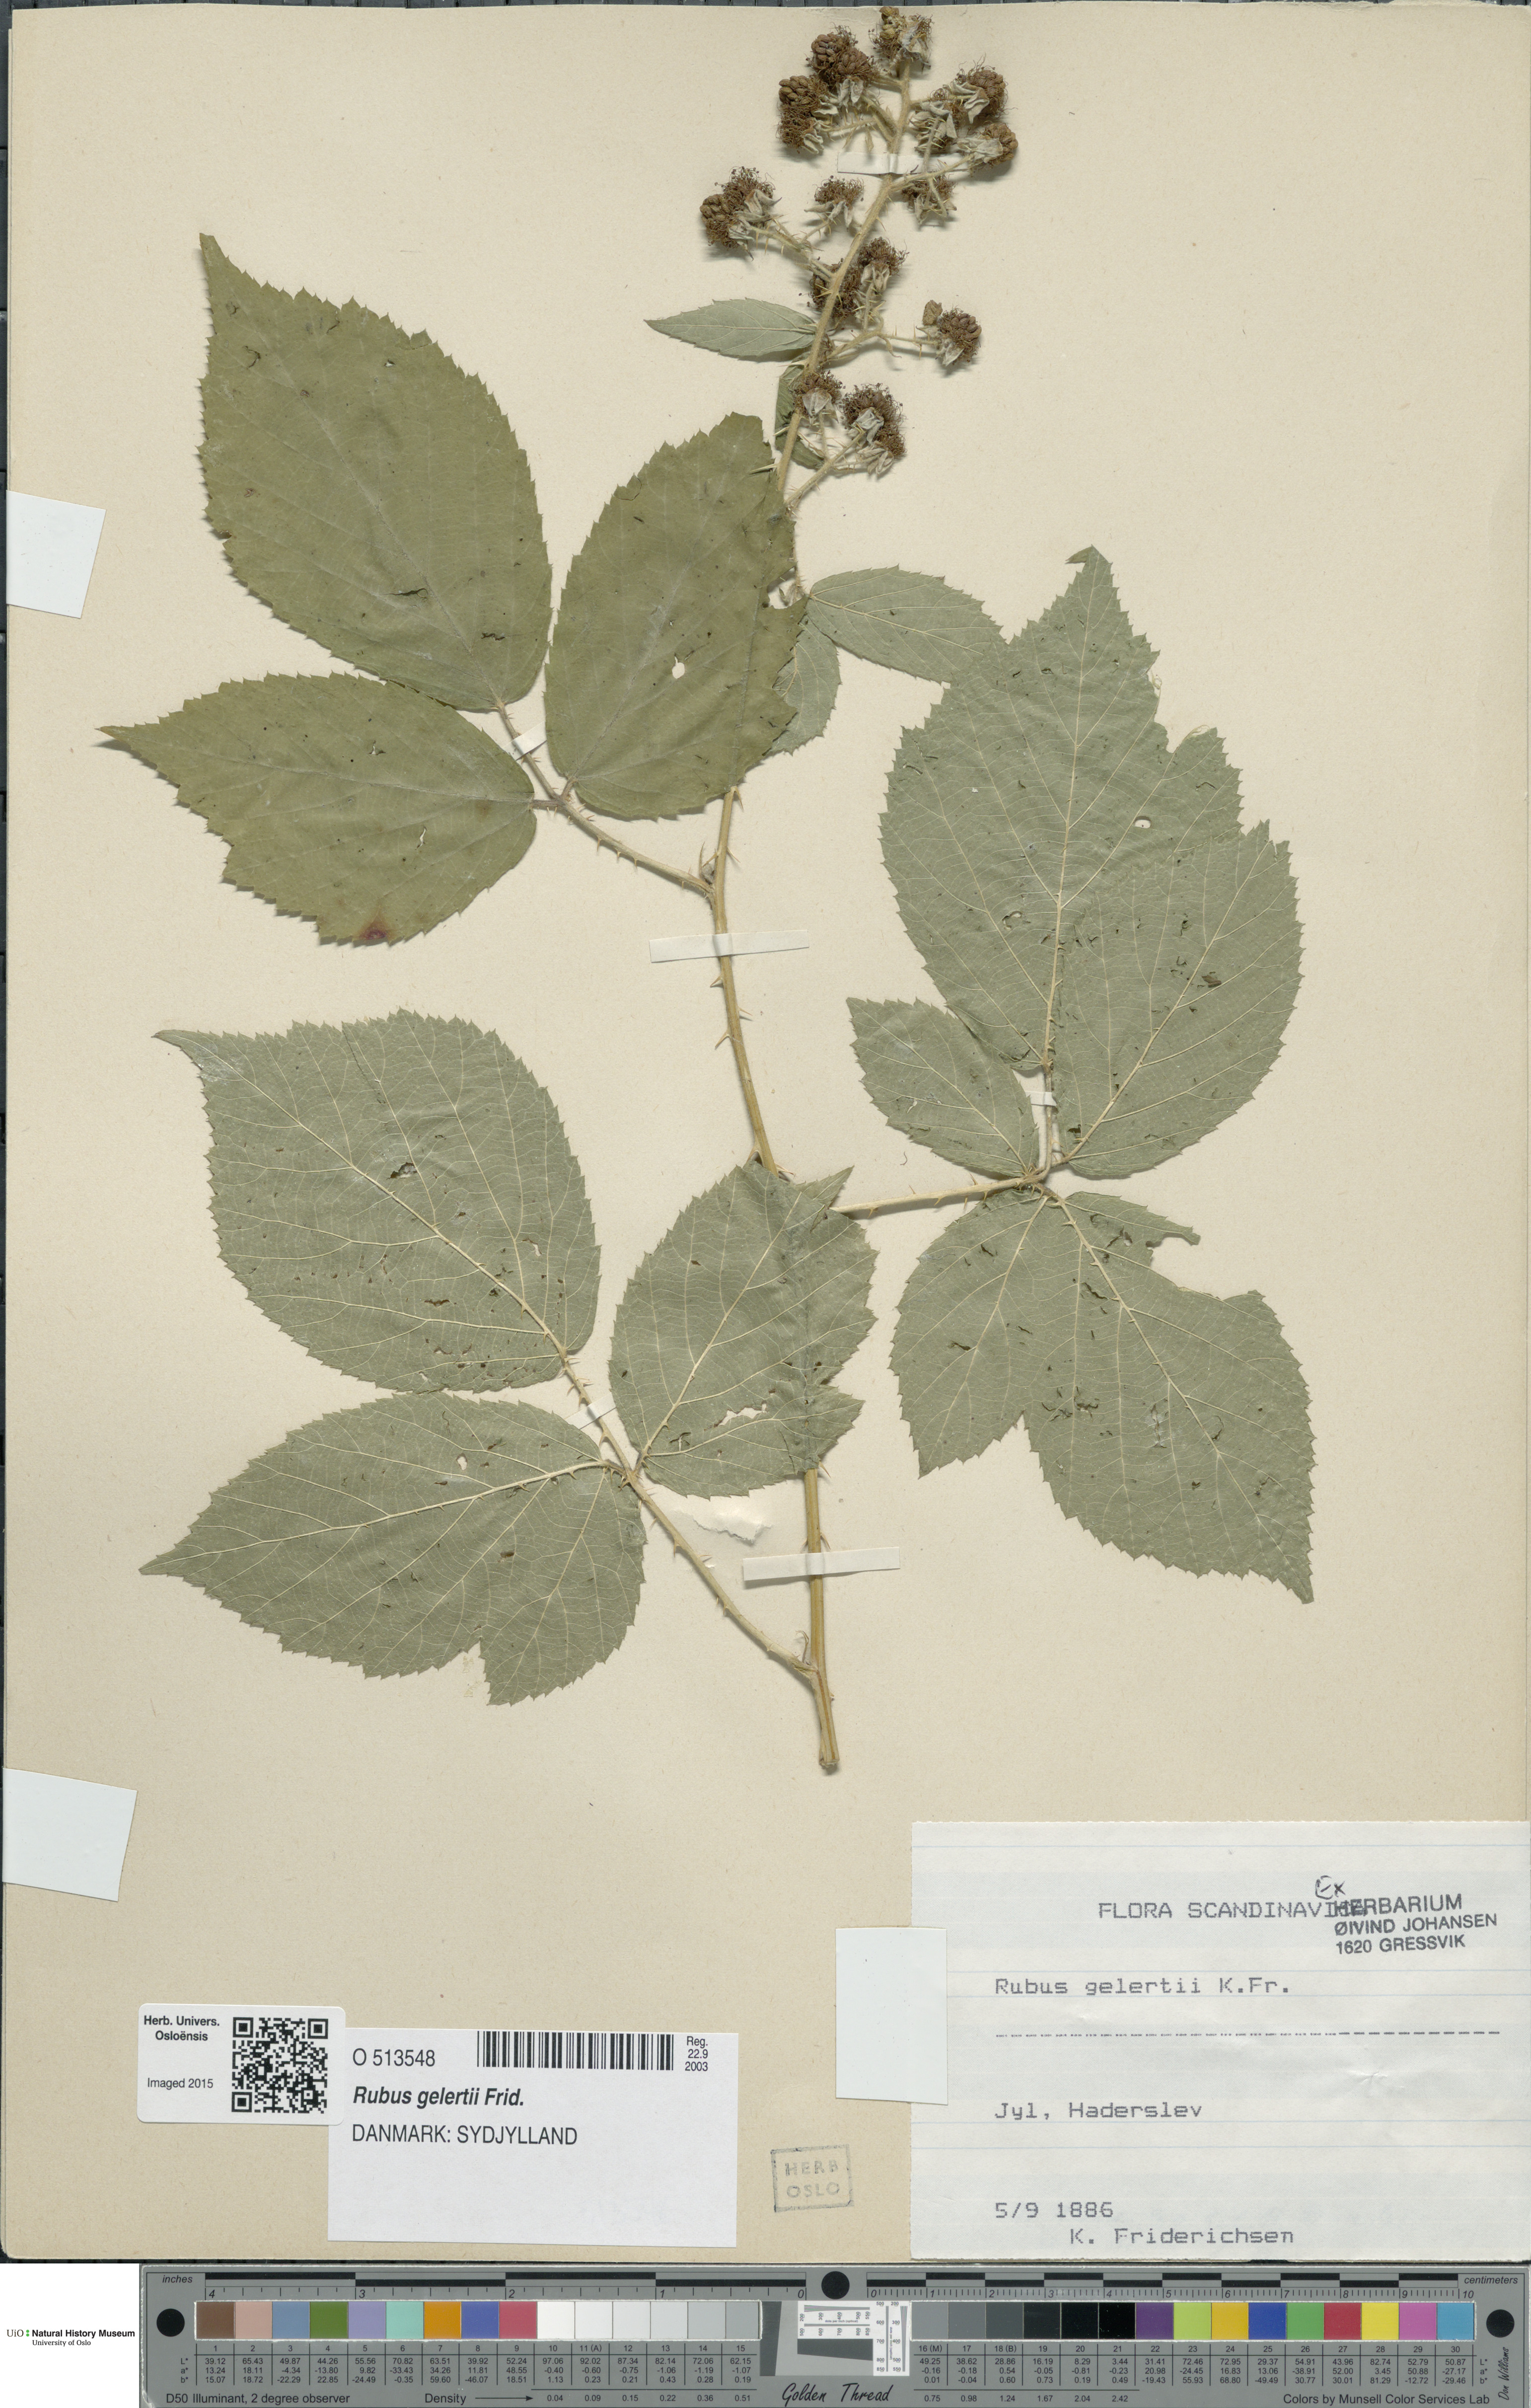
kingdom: Plantae
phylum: Tracheophyta
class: Magnoliopsida
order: Rosales
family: Rosaceae
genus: Rubus
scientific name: Rubus gelertii
